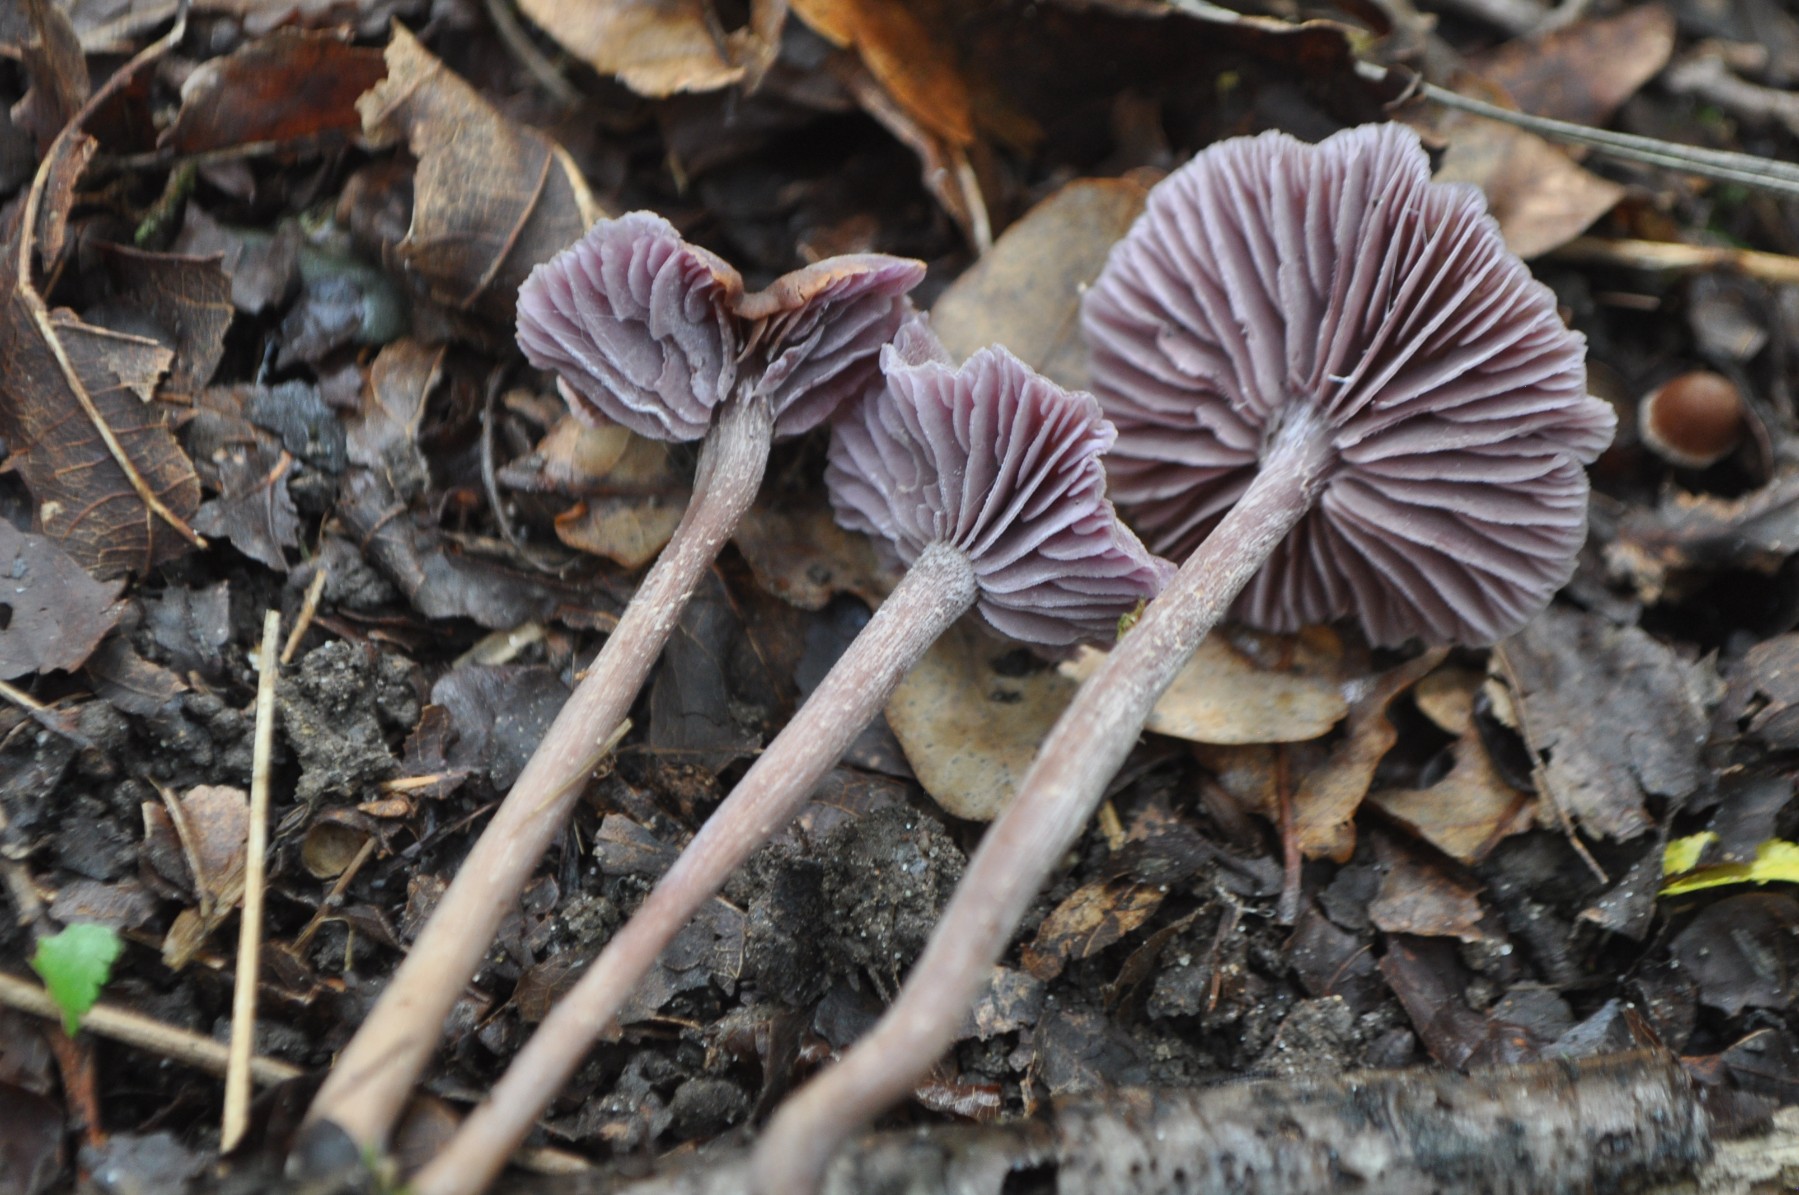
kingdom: Fungi
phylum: Basidiomycota
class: Agaricomycetes
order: Agaricales
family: Hydnangiaceae
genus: Laccaria
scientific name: Laccaria amethystina
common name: violet ametysthat
